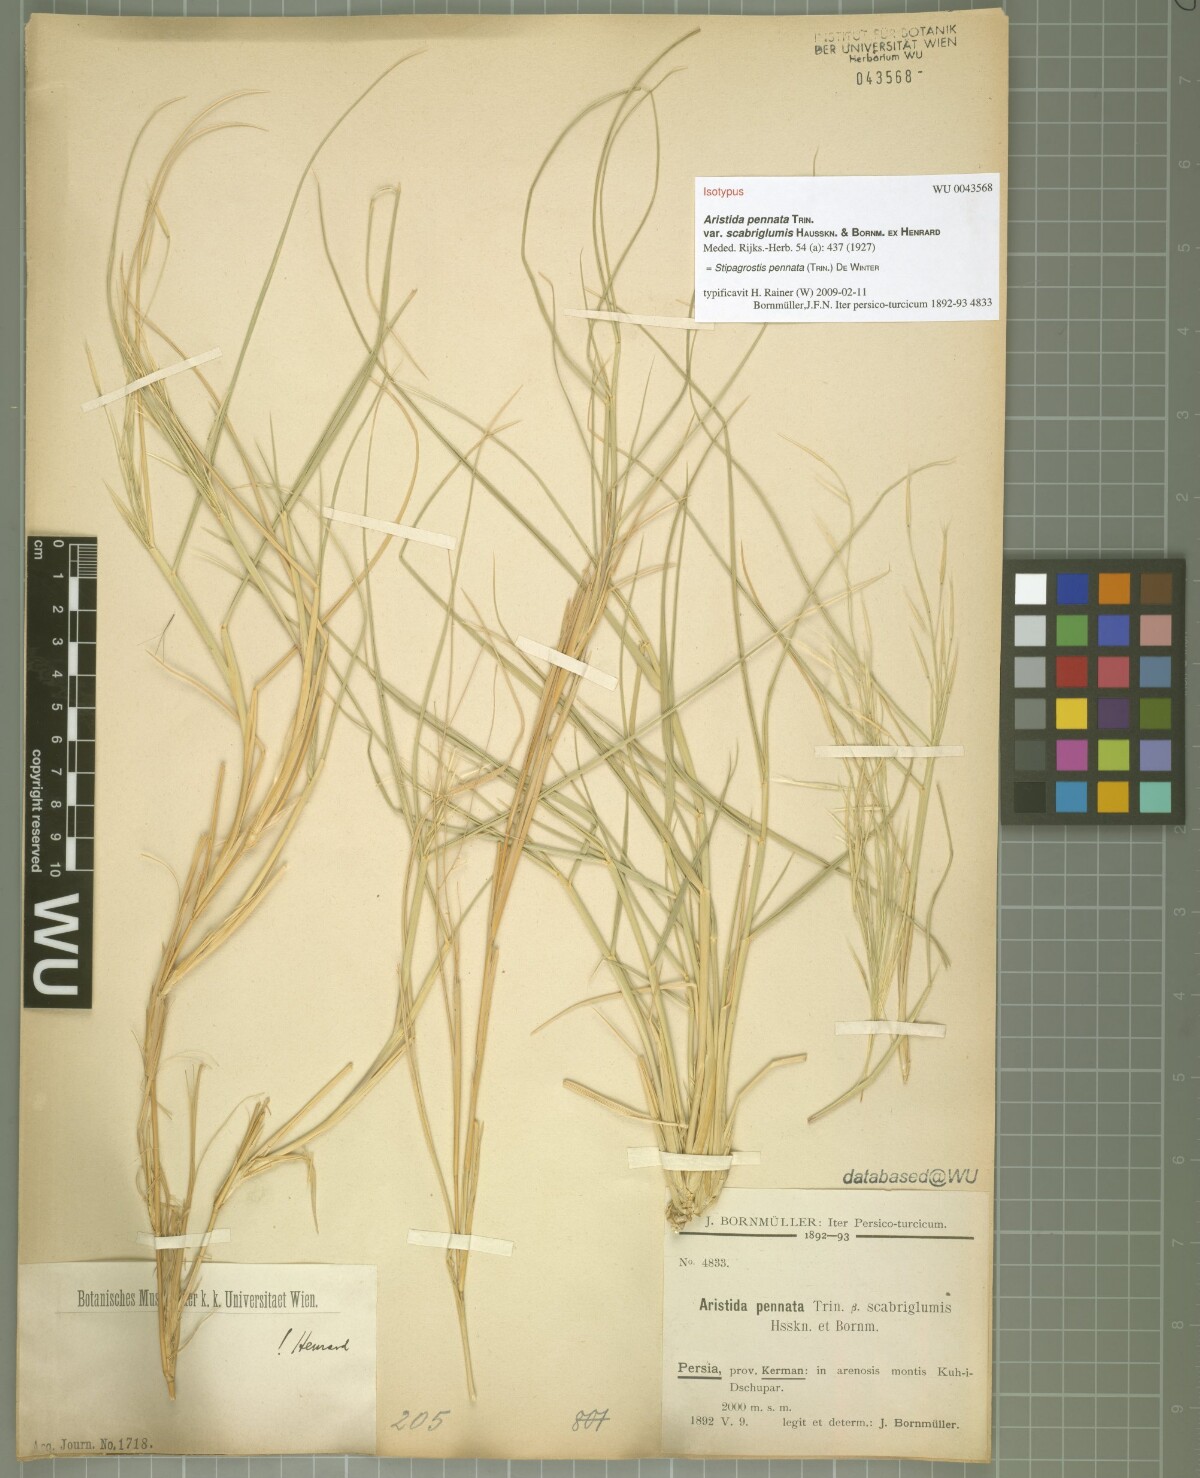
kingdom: Plantae
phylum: Tracheophyta
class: Liliopsida
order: Poales
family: Poaceae
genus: Stipagrostis
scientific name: Stipagrostis pennata
